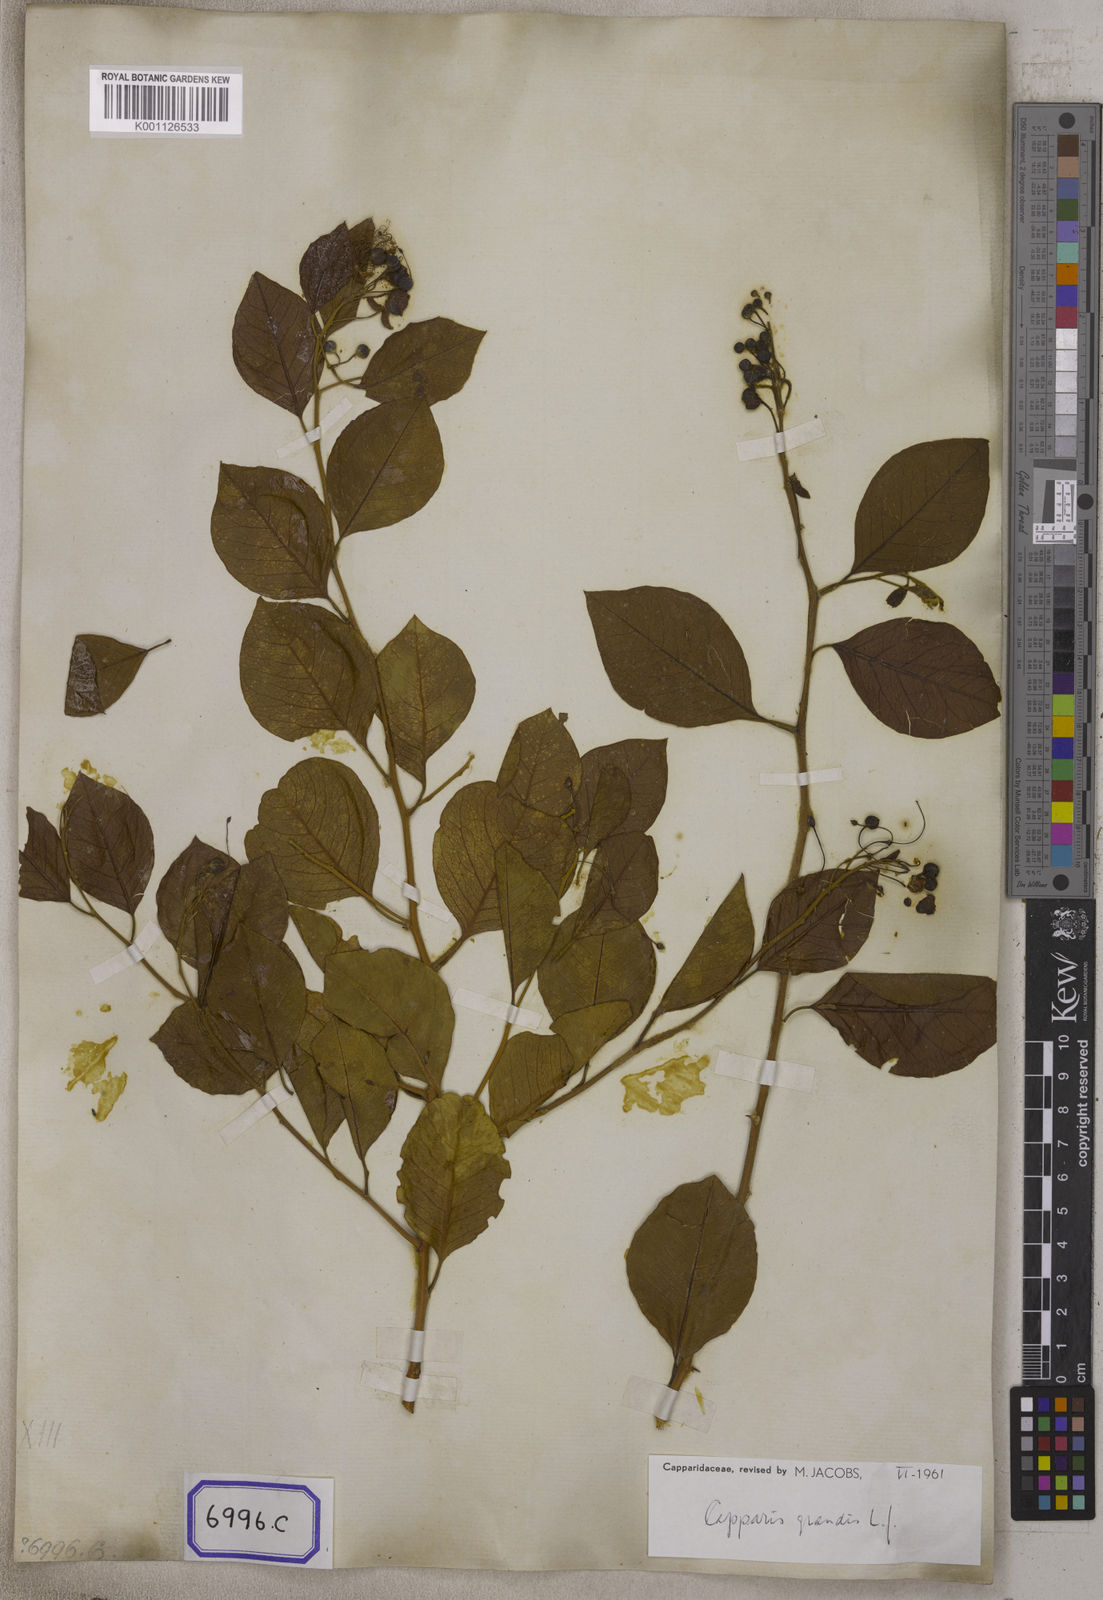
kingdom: Plantae
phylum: Tracheophyta
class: Magnoliopsida
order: Brassicales
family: Capparaceae
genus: Capparis
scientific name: Capparis grandis
